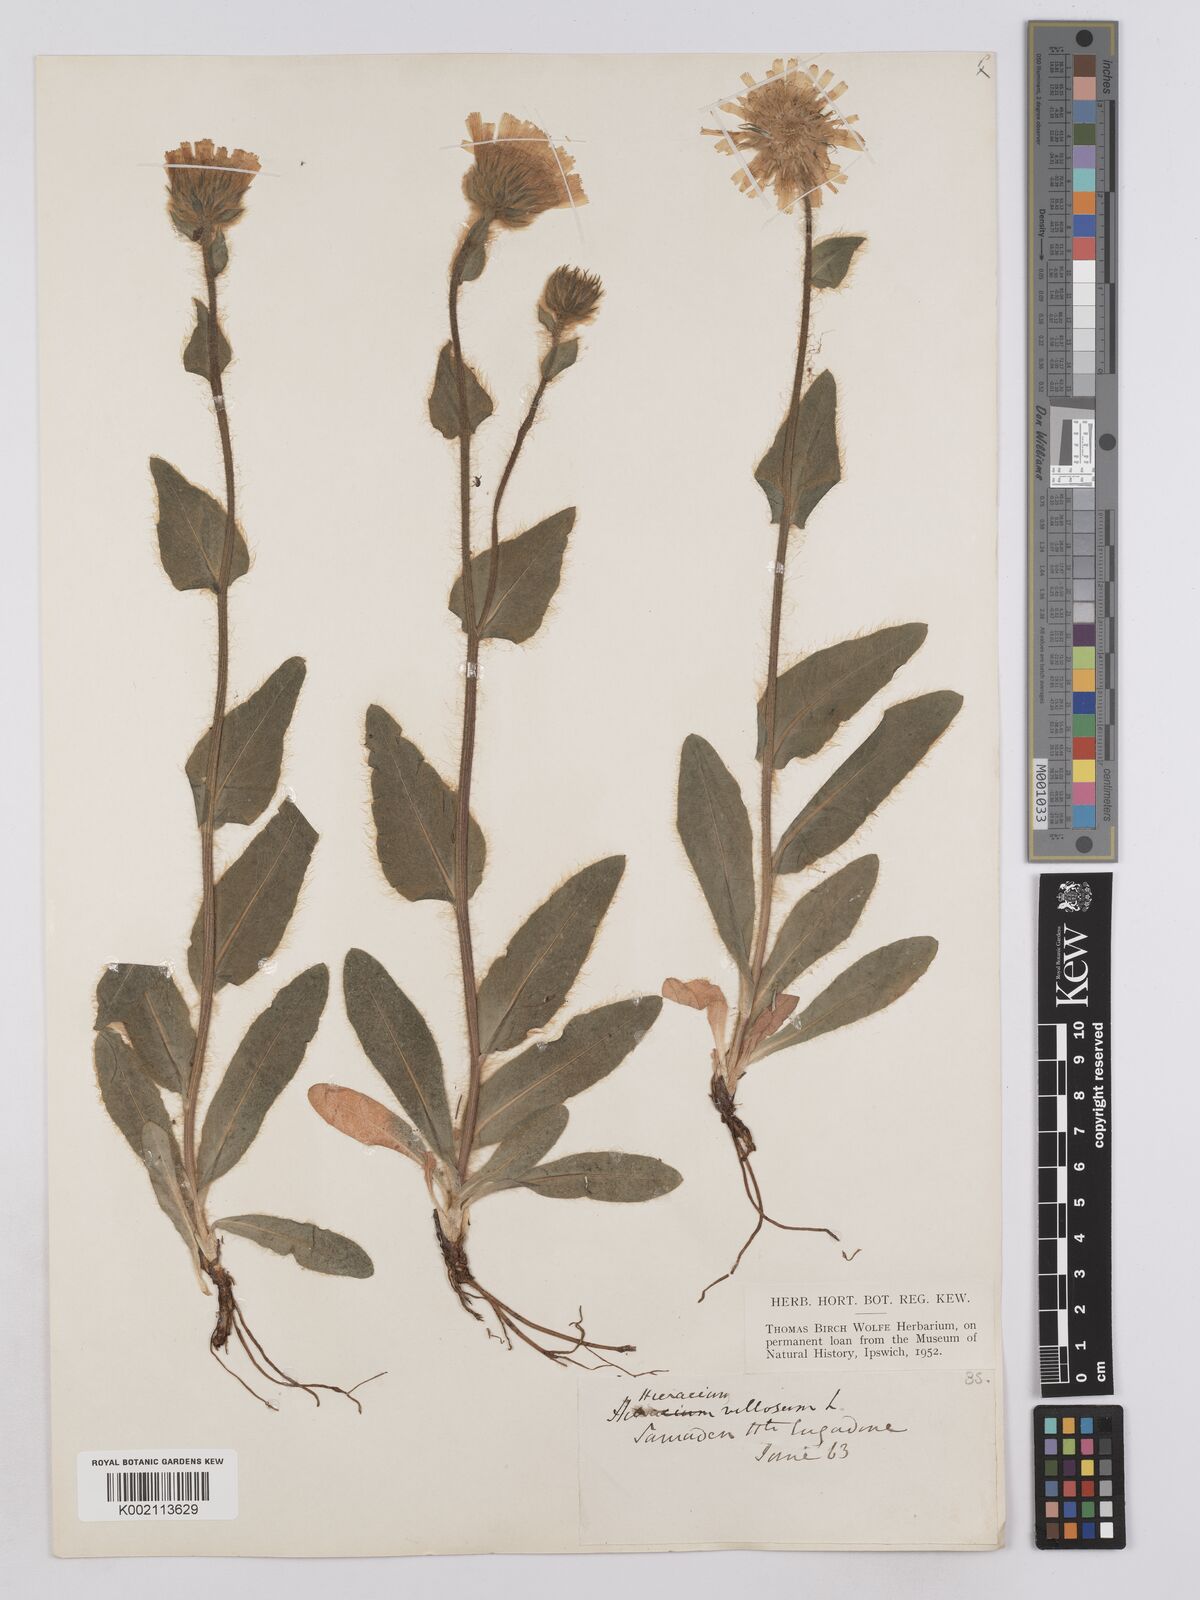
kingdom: Plantae
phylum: Tracheophyta
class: Magnoliopsida
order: Asterales
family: Asteraceae
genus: Hieracium
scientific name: Hieracium villosum
